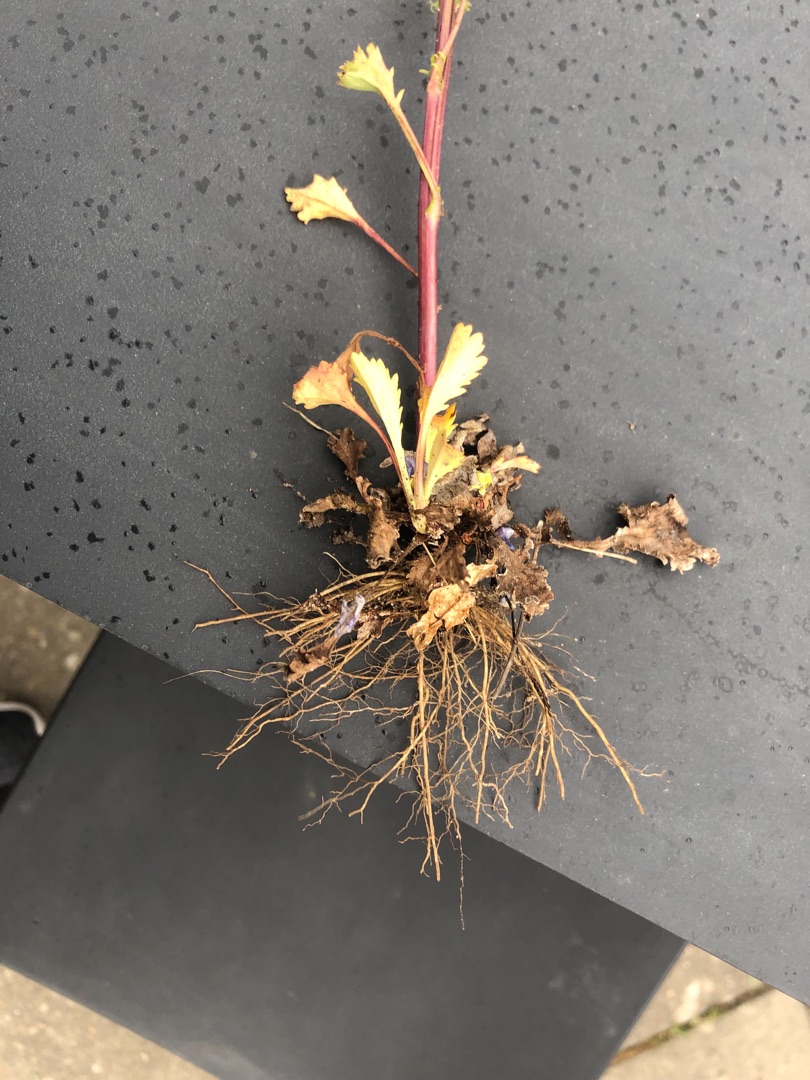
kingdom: Plantae
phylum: Tracheophyta
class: Magnoliopsida
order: Asterales
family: Asteraceae
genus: Leucanthemum
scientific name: Leucanthemum vulgare
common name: Hvid okseøje
